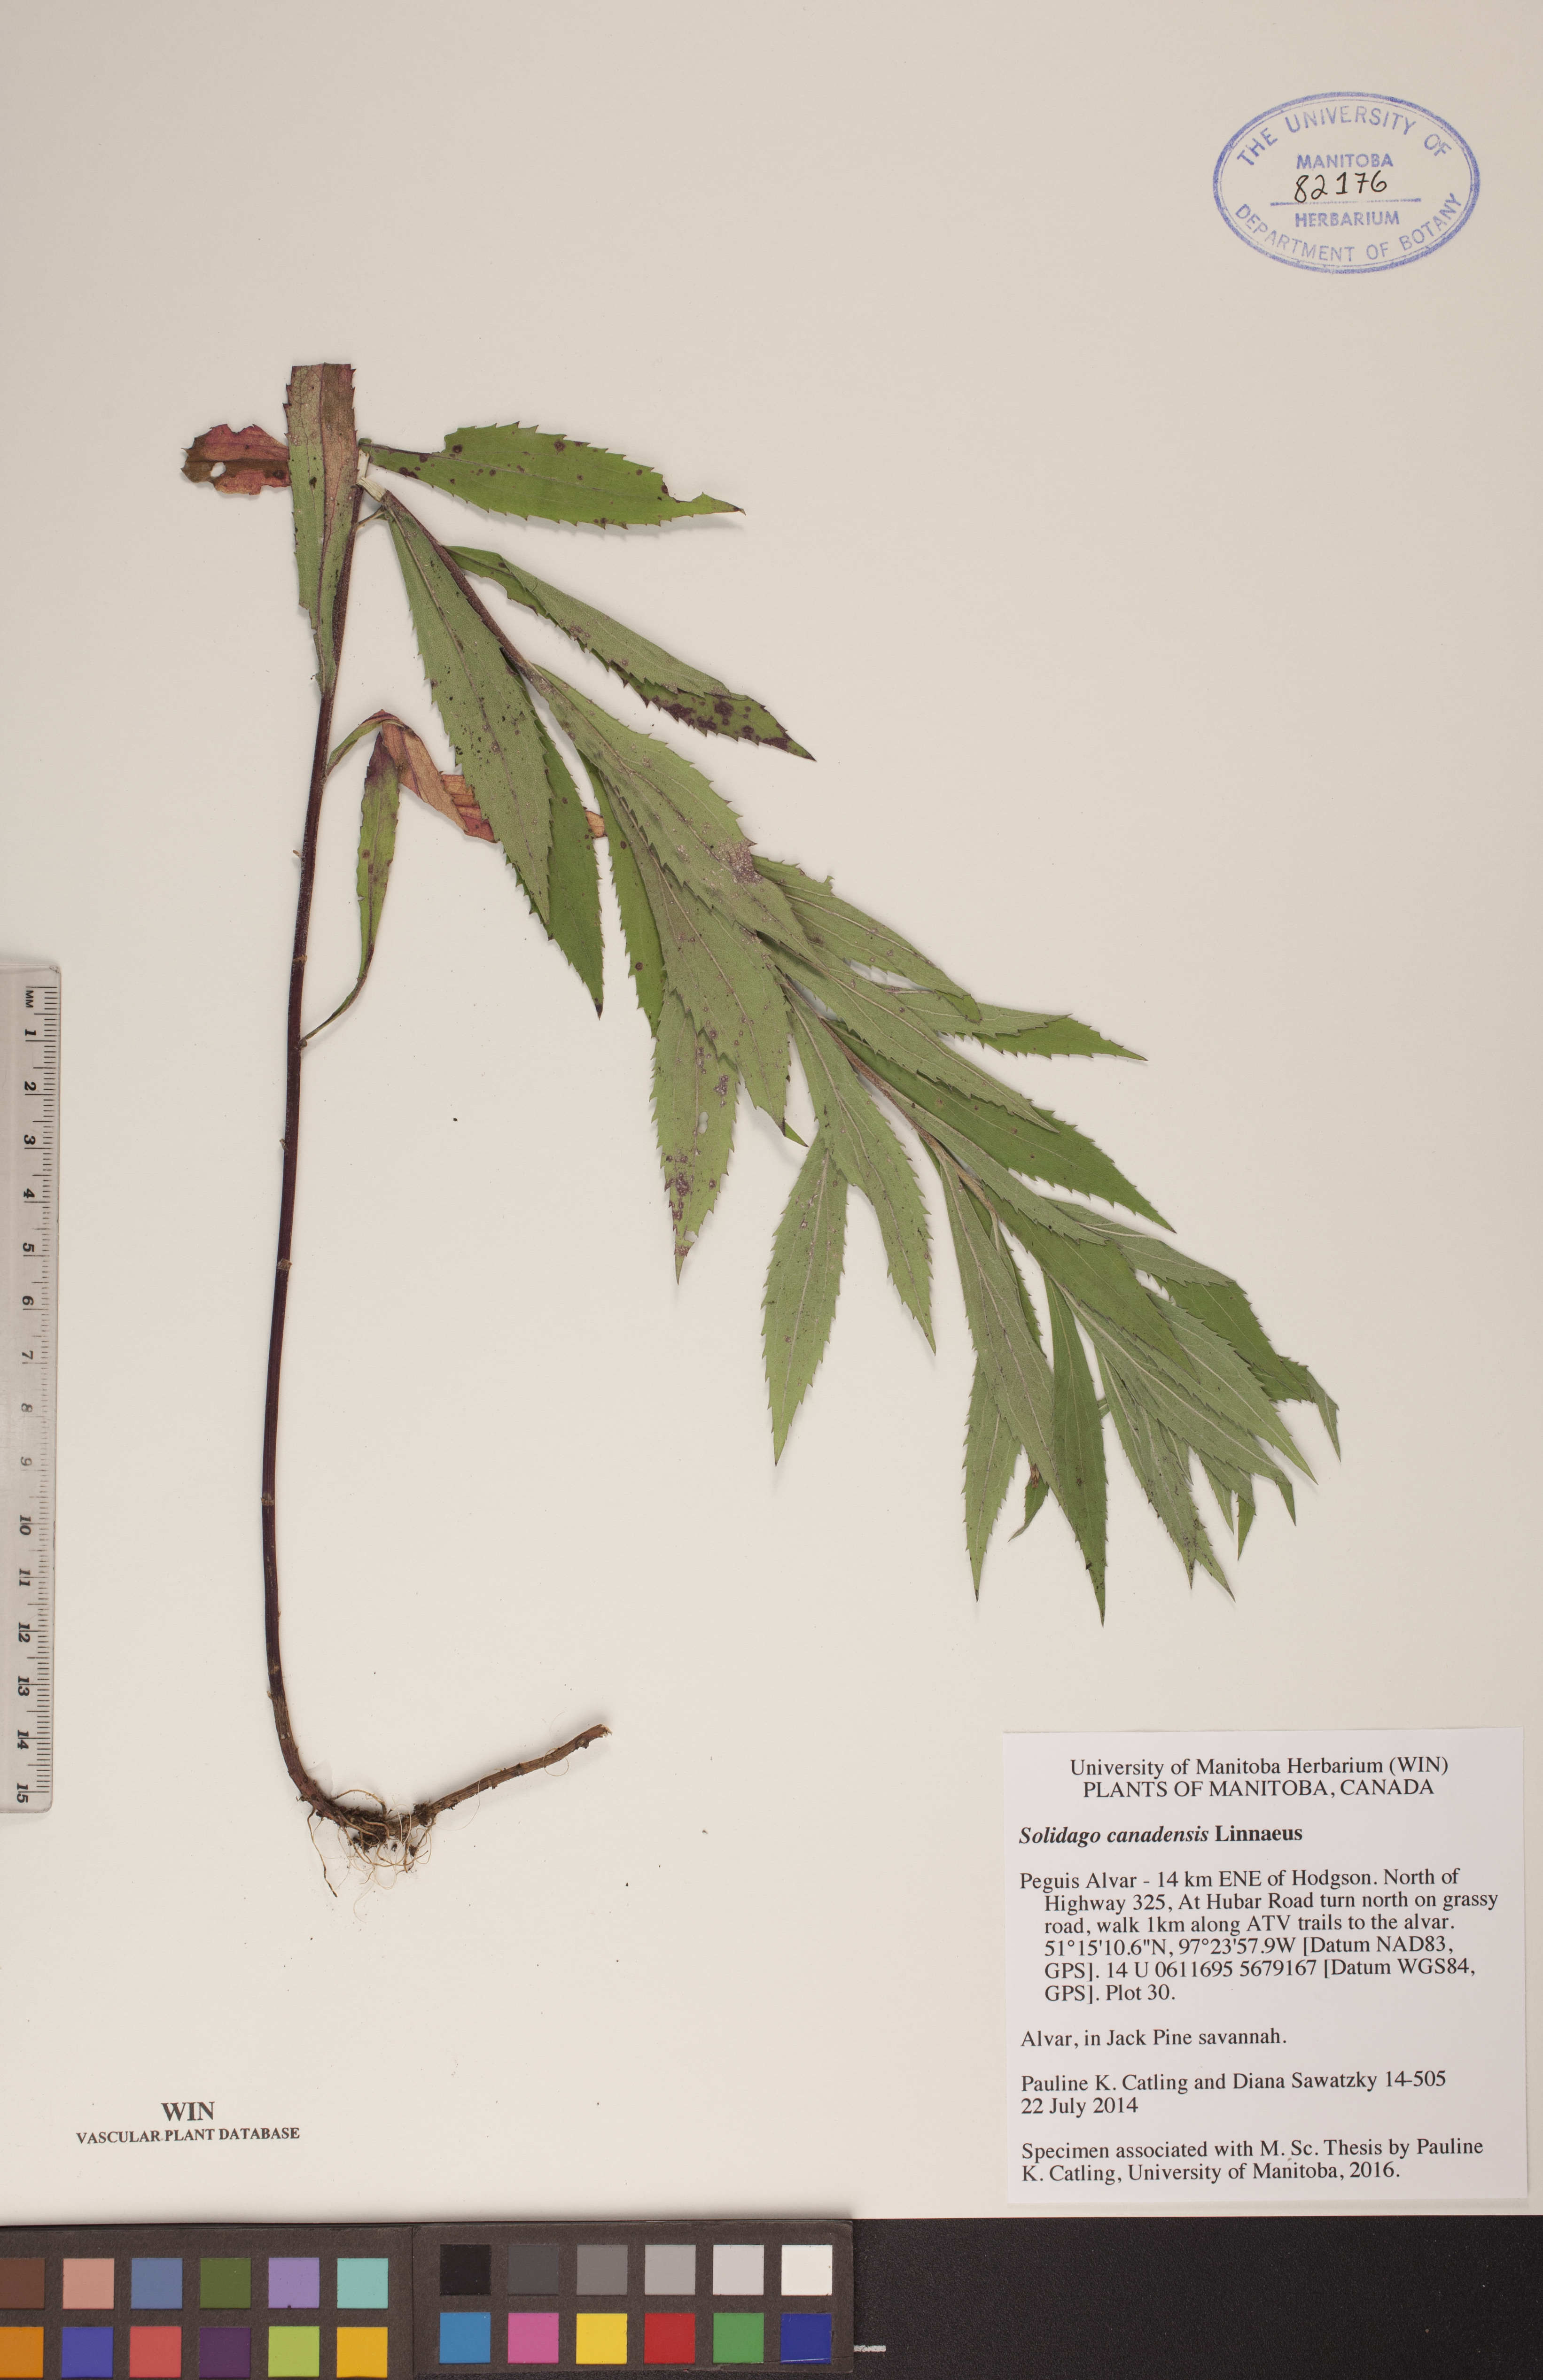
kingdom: Plantae
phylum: Tracheophyta
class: Magnoliopsida
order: Asterales
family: Asteraceae
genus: Solidago
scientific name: Solidago canadensis
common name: Canada goldenrod
